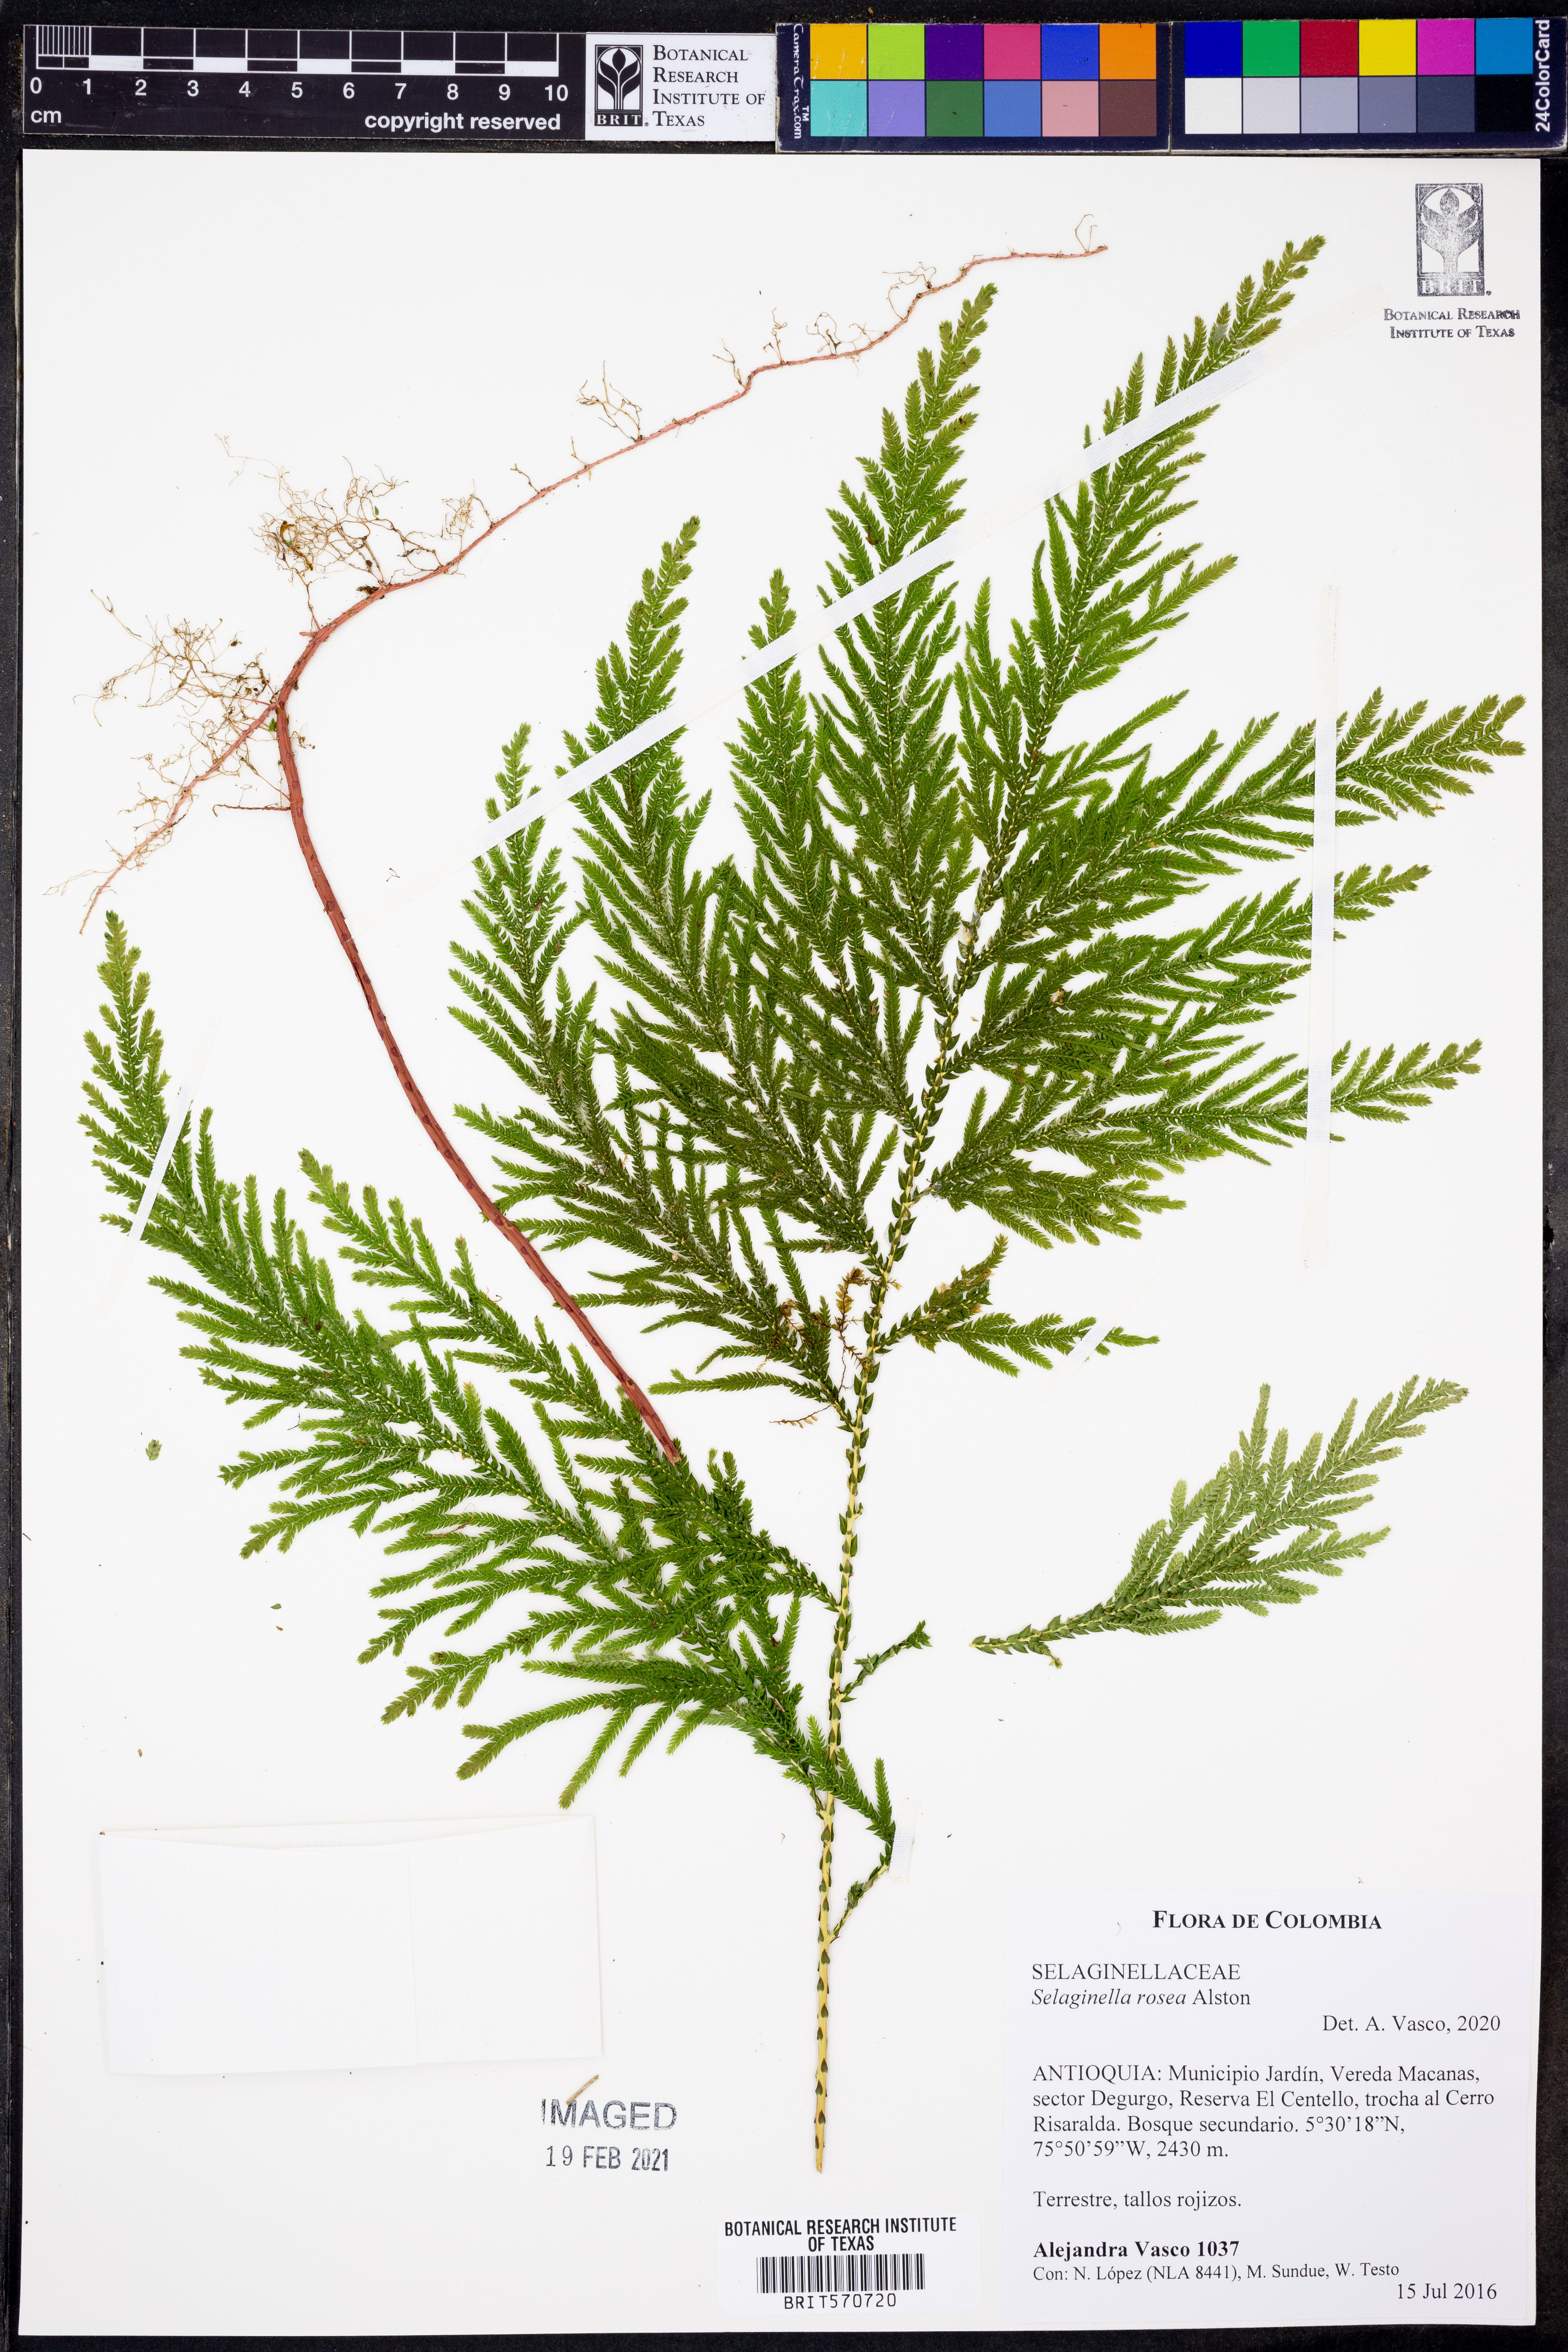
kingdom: Plantae
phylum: Tracheophyta
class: Lycopodiopsida
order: Selaginellales
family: Selaginellaceae
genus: Selaginella
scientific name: Selaginella rosea
